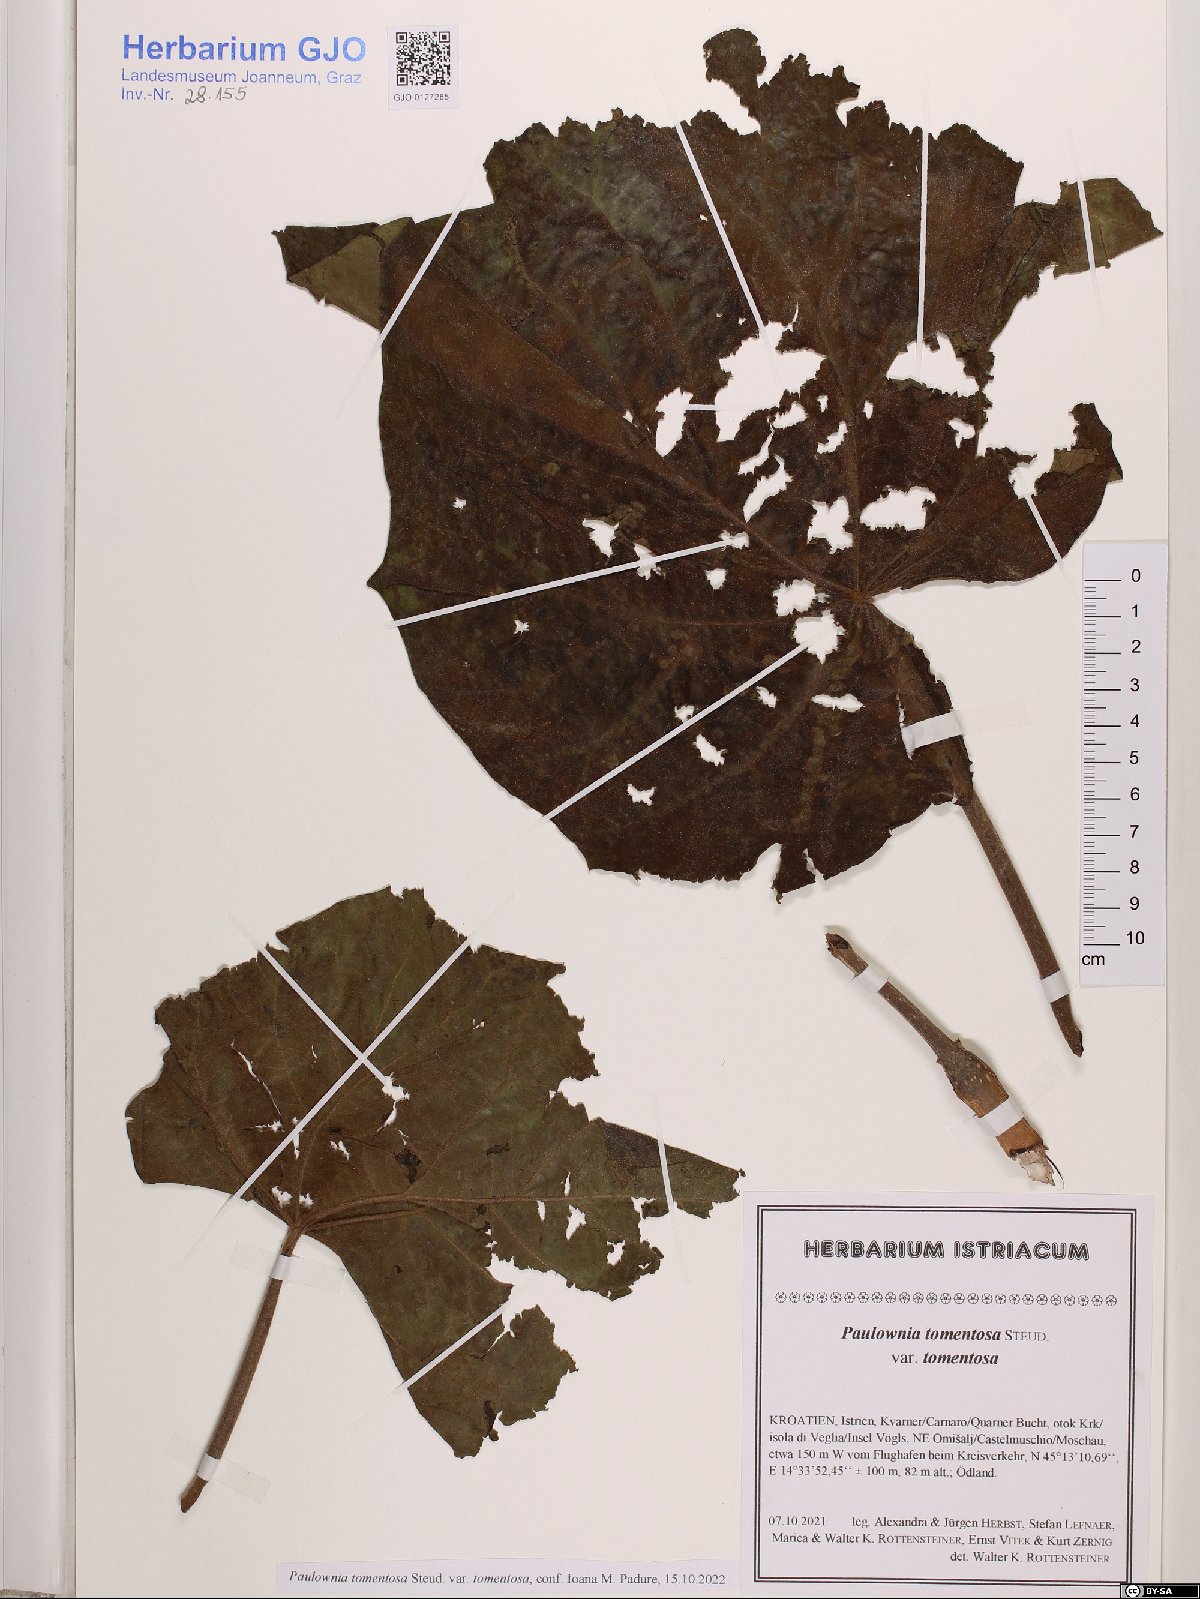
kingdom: Plantae
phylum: Tracheophyta
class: Magnoliopsida
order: Lamiales
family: Paulowniaceae
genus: Paulownia
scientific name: Paulownia tomentosa
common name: Foxglove-tree
